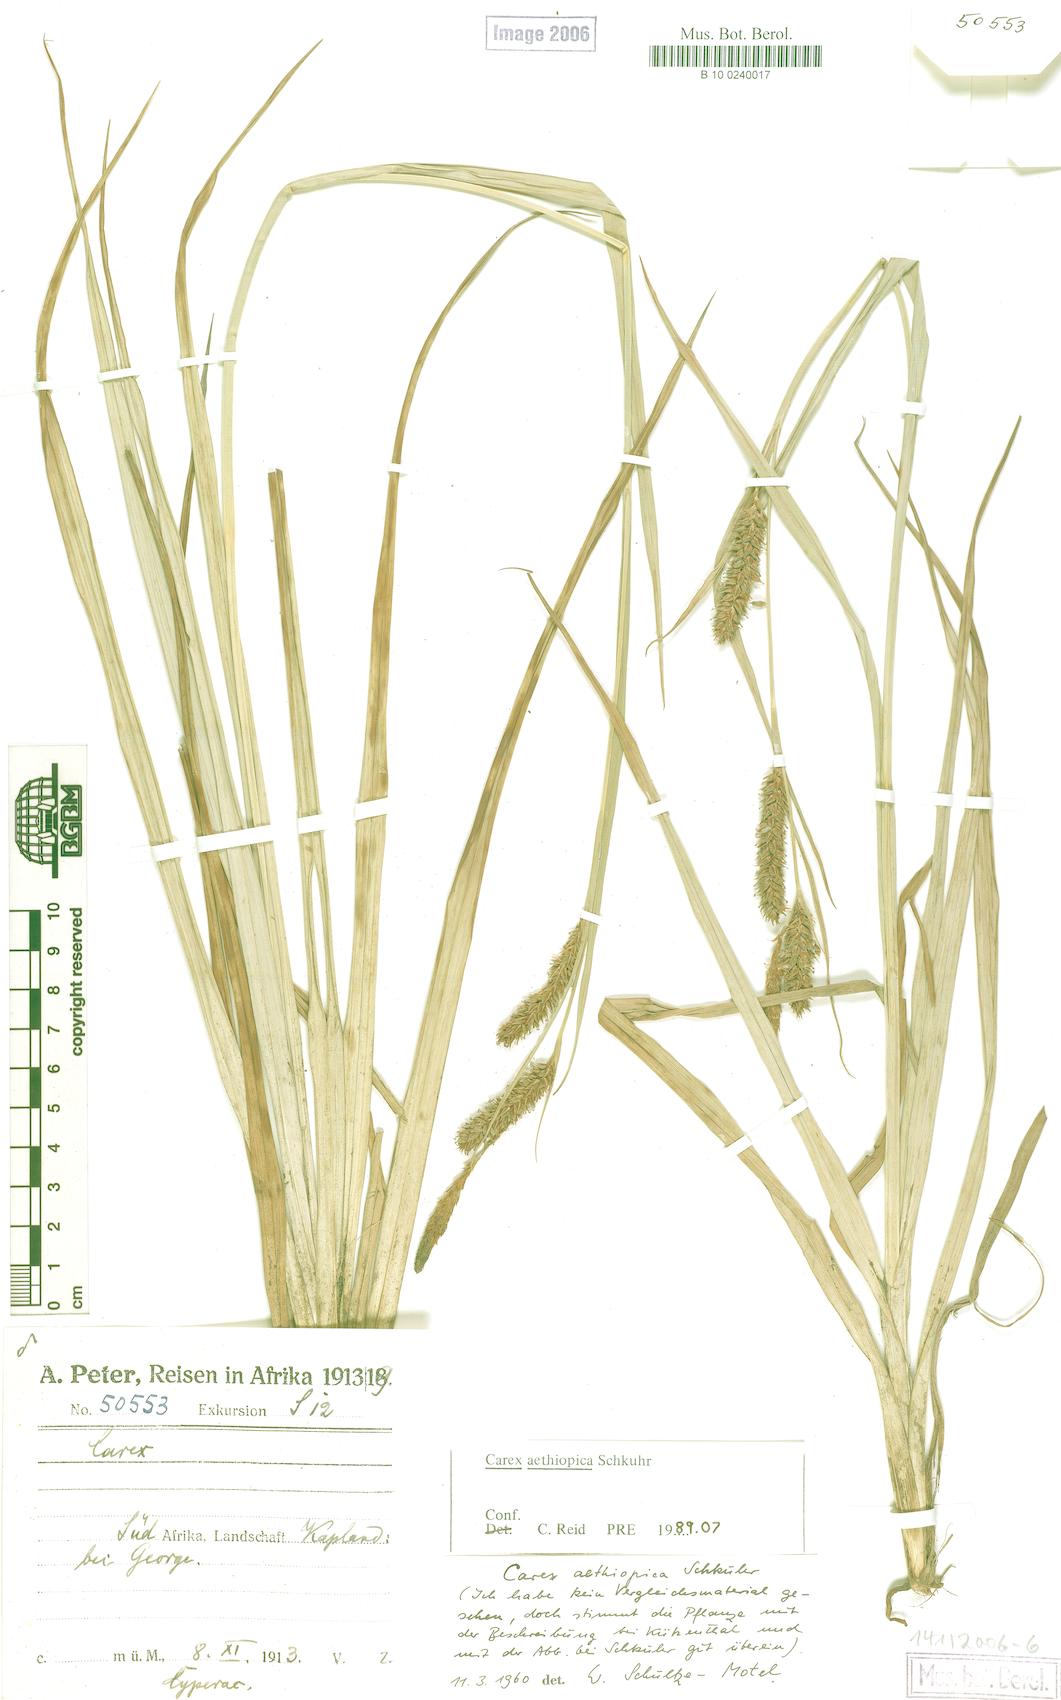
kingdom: Plantae
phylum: Tracheophyta
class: Liliopsida
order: Poales
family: Cyperaceae
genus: Carex
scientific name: Carex clavata
